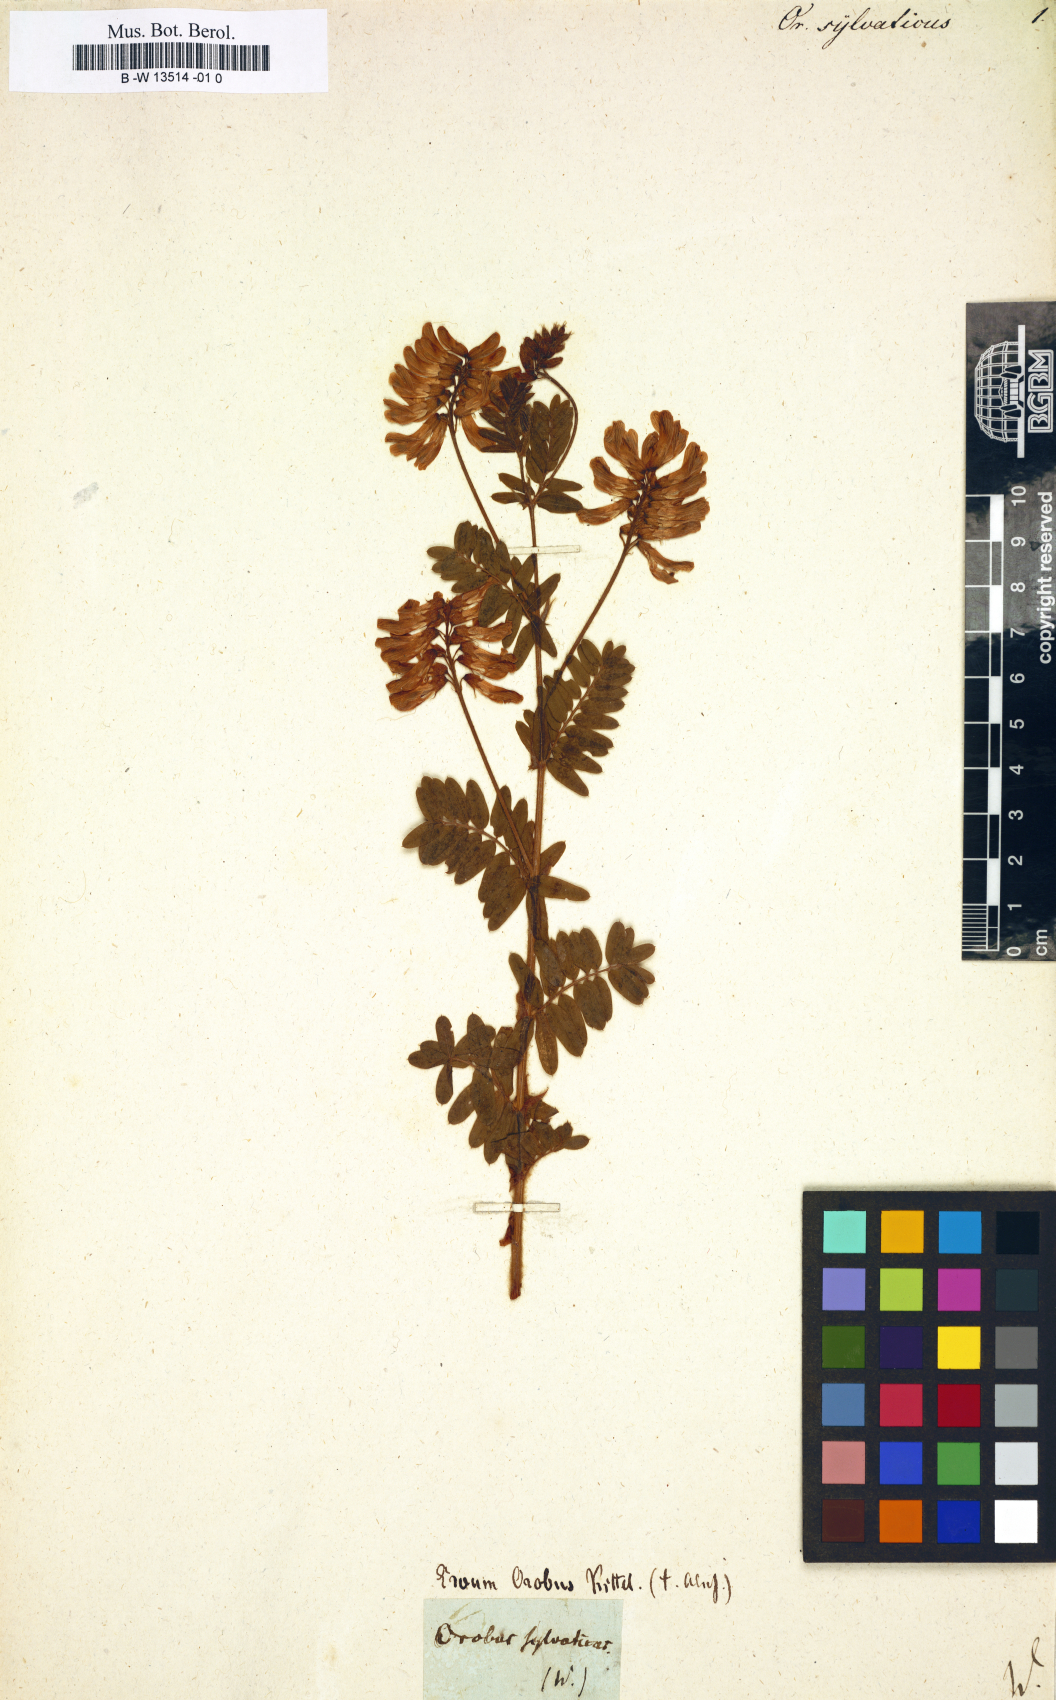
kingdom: Plantae
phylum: Tracheophyta
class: Magnoliopsida
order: Fabales
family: Fabaceae
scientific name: Fabaceae
